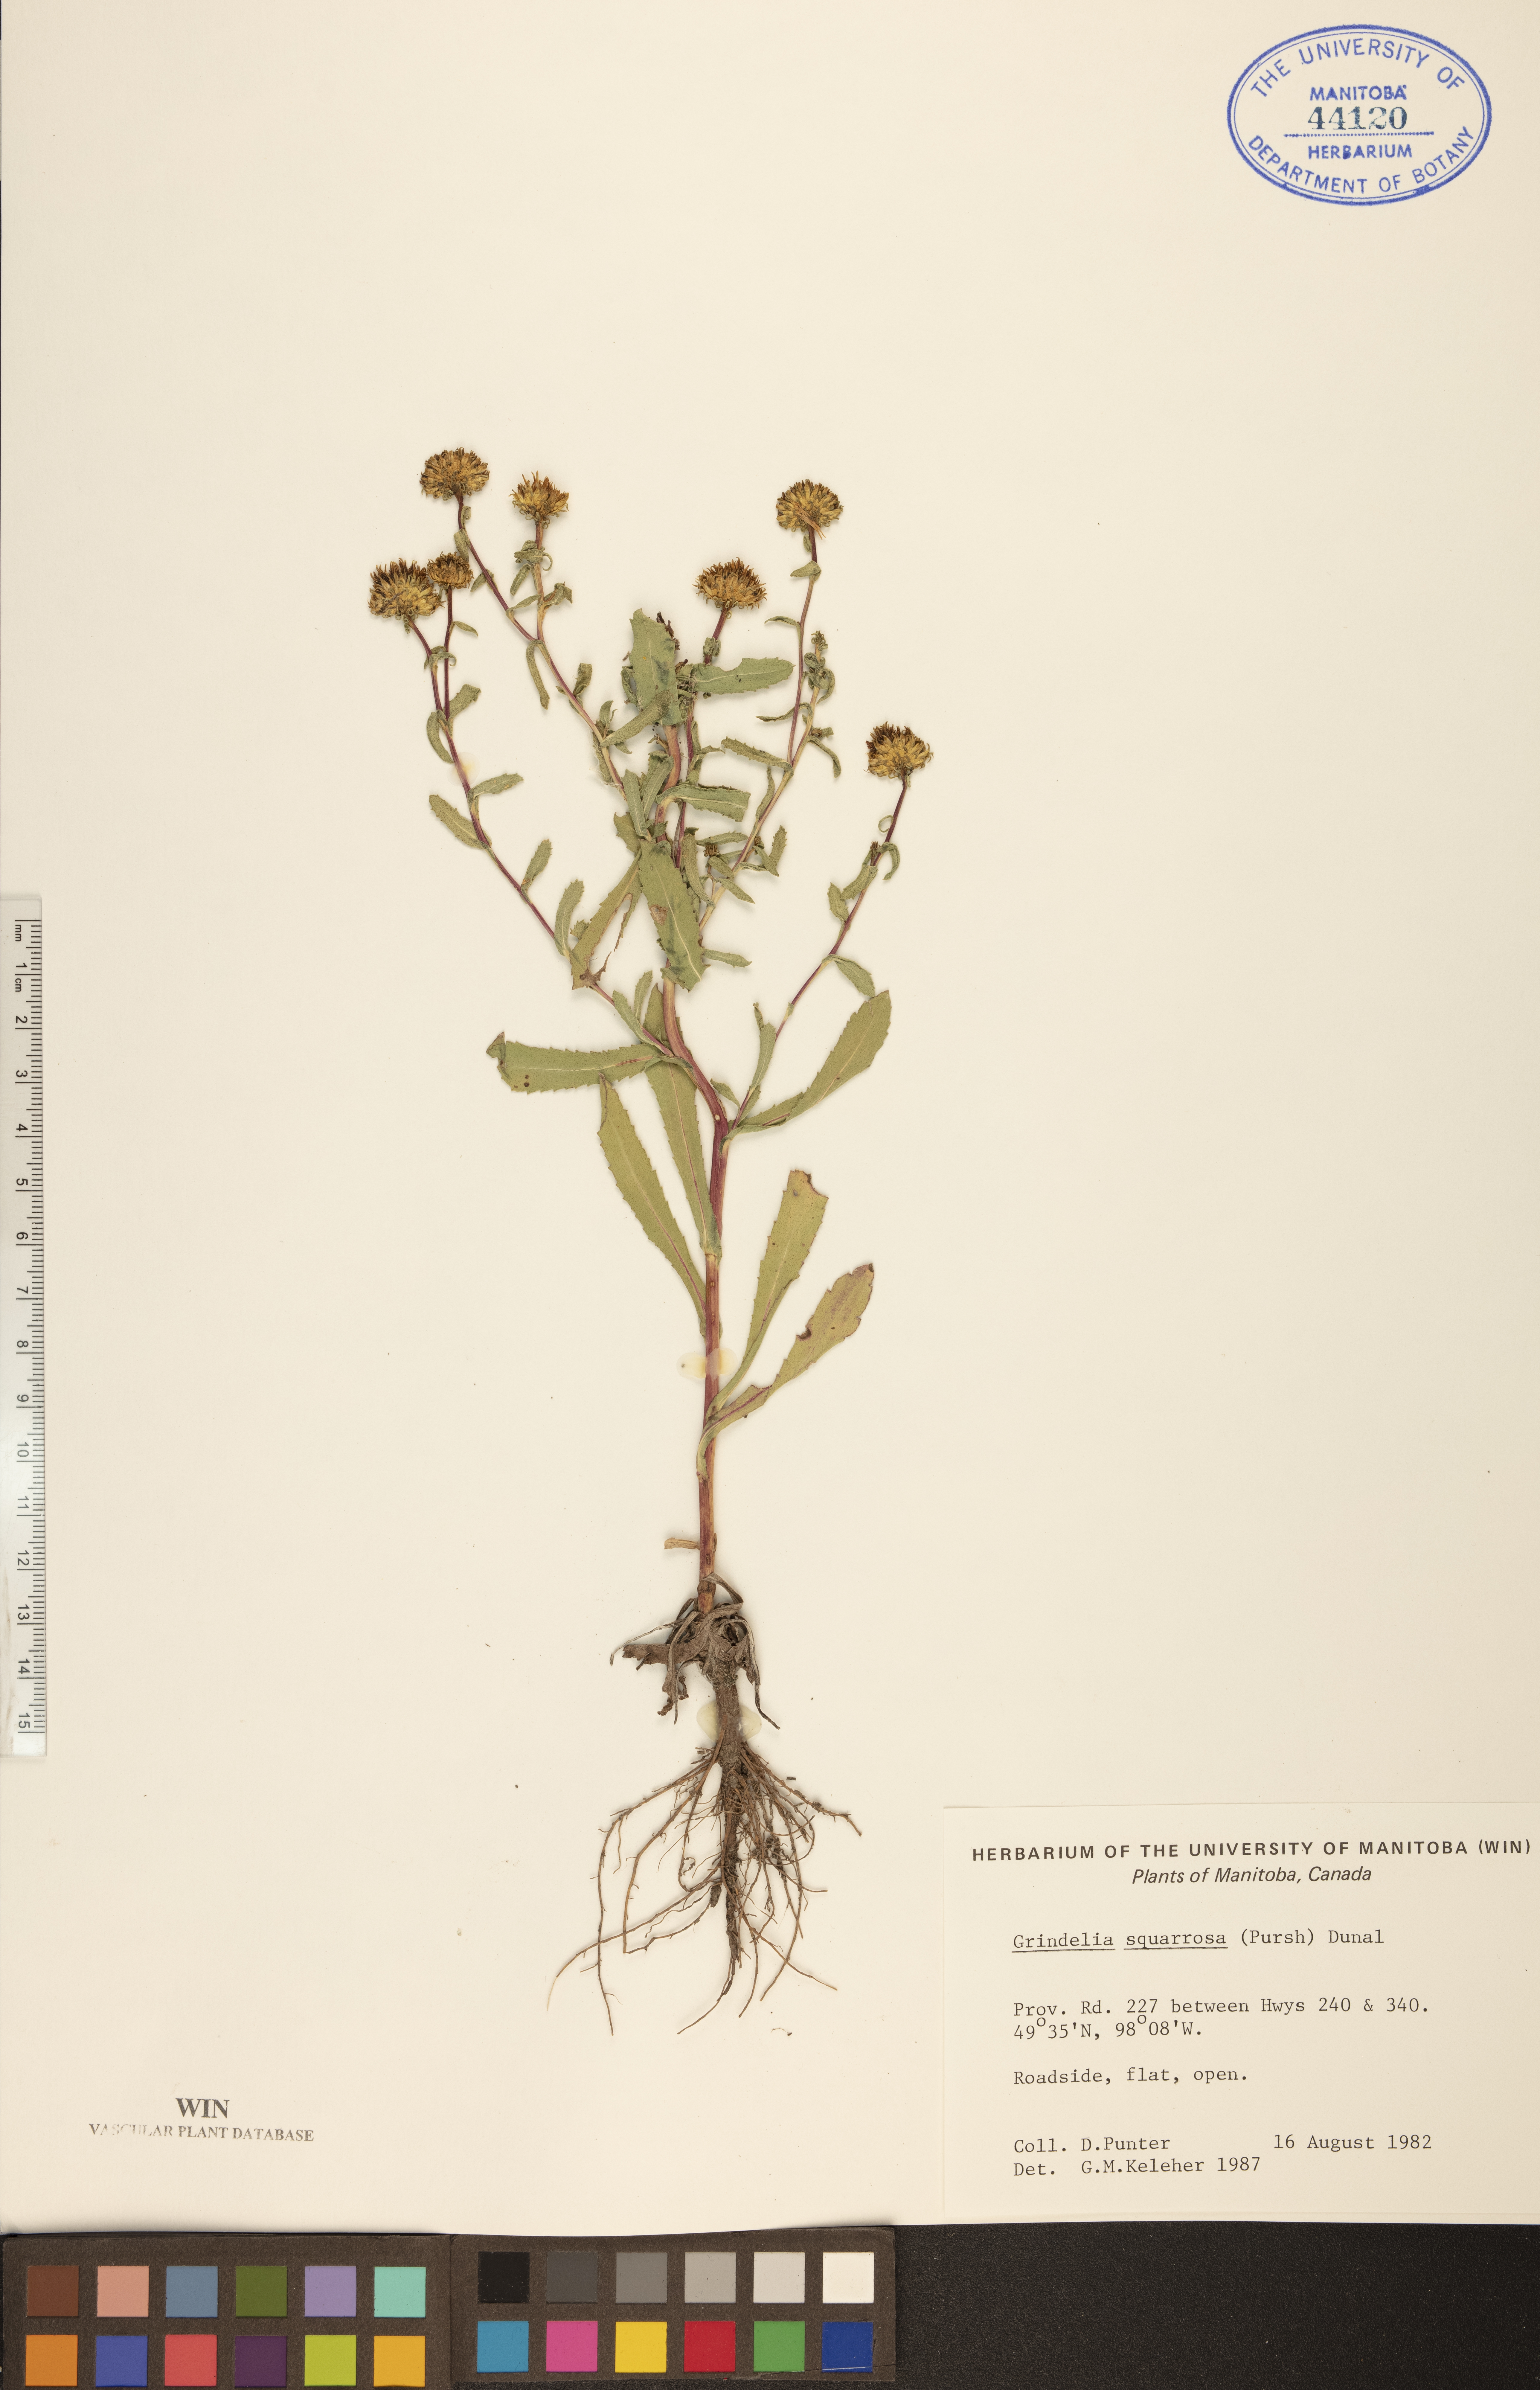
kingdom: Plantae
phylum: Tracheophyta
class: Magnoliopsida
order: Asterales
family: Asteraceae
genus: Grindelia
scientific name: Grindelia squarrosa
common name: Curly-cup gumweed
